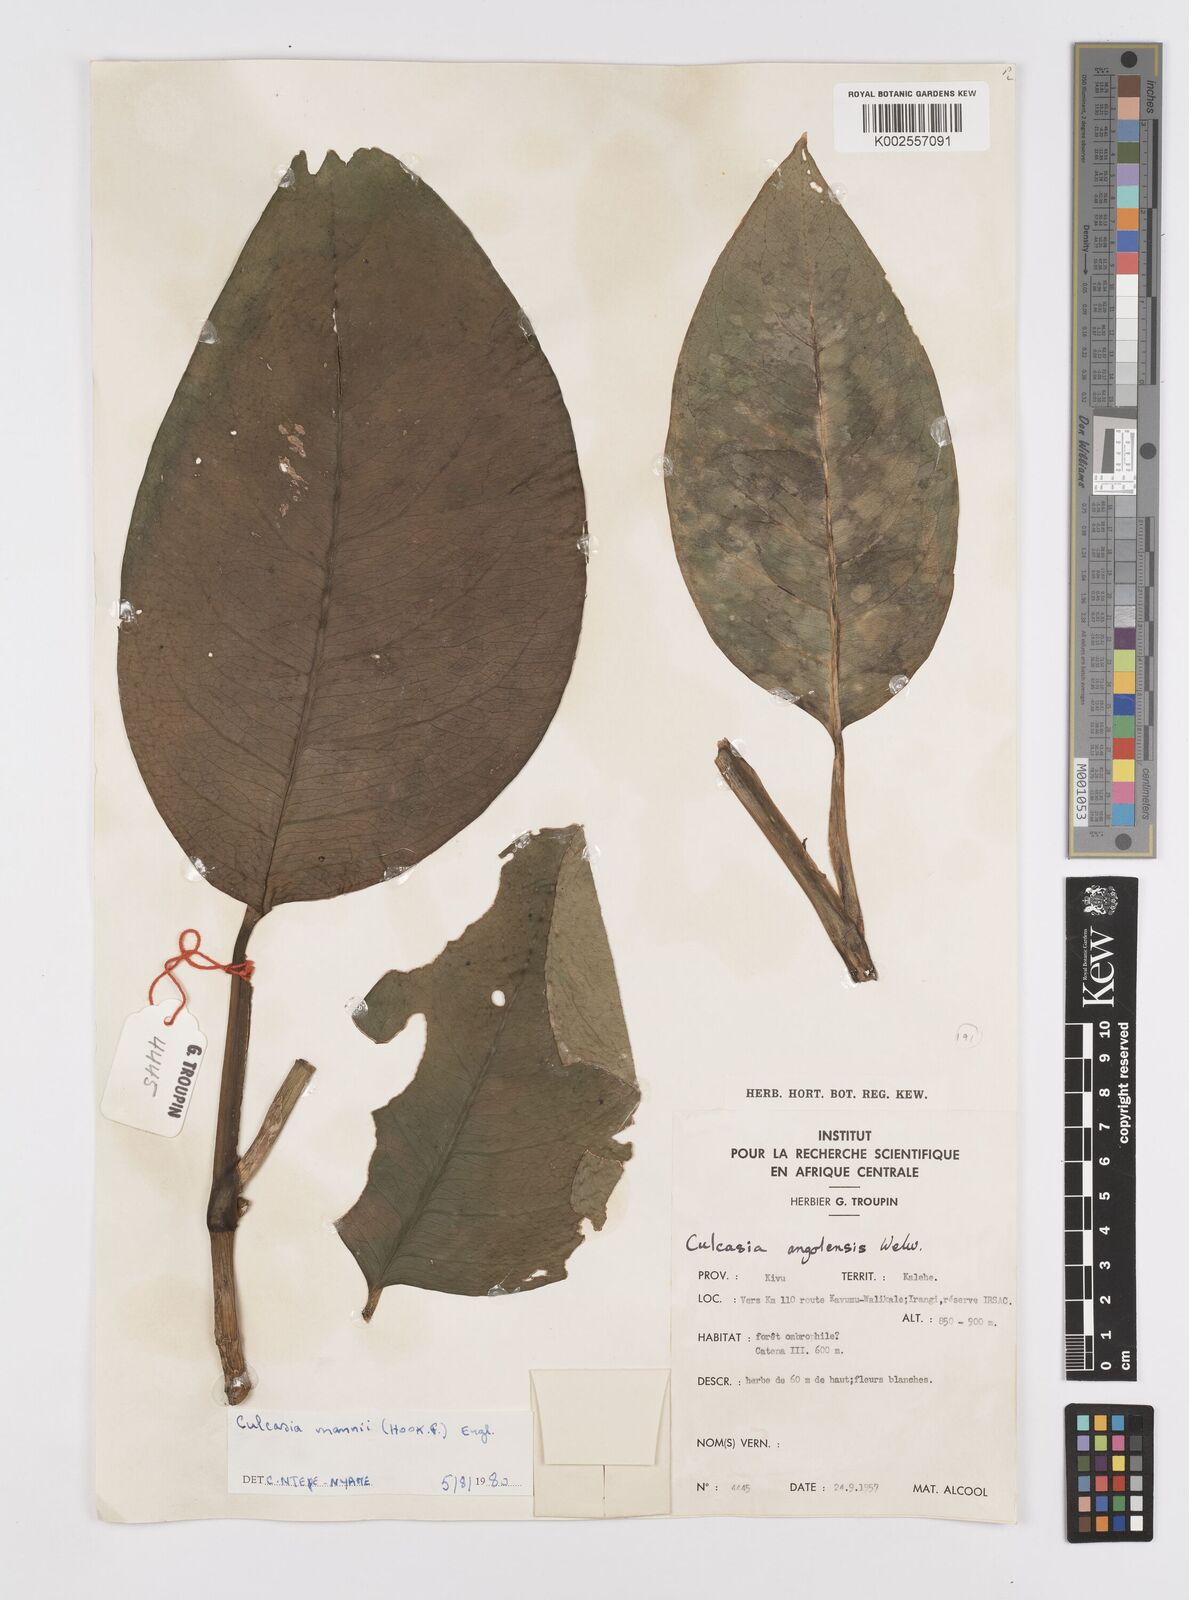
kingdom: Plantae
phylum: Tracheophyta
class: Liliopsida
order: Alismatales
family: Araceae
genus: Culcasia
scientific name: Culcasia mannii
